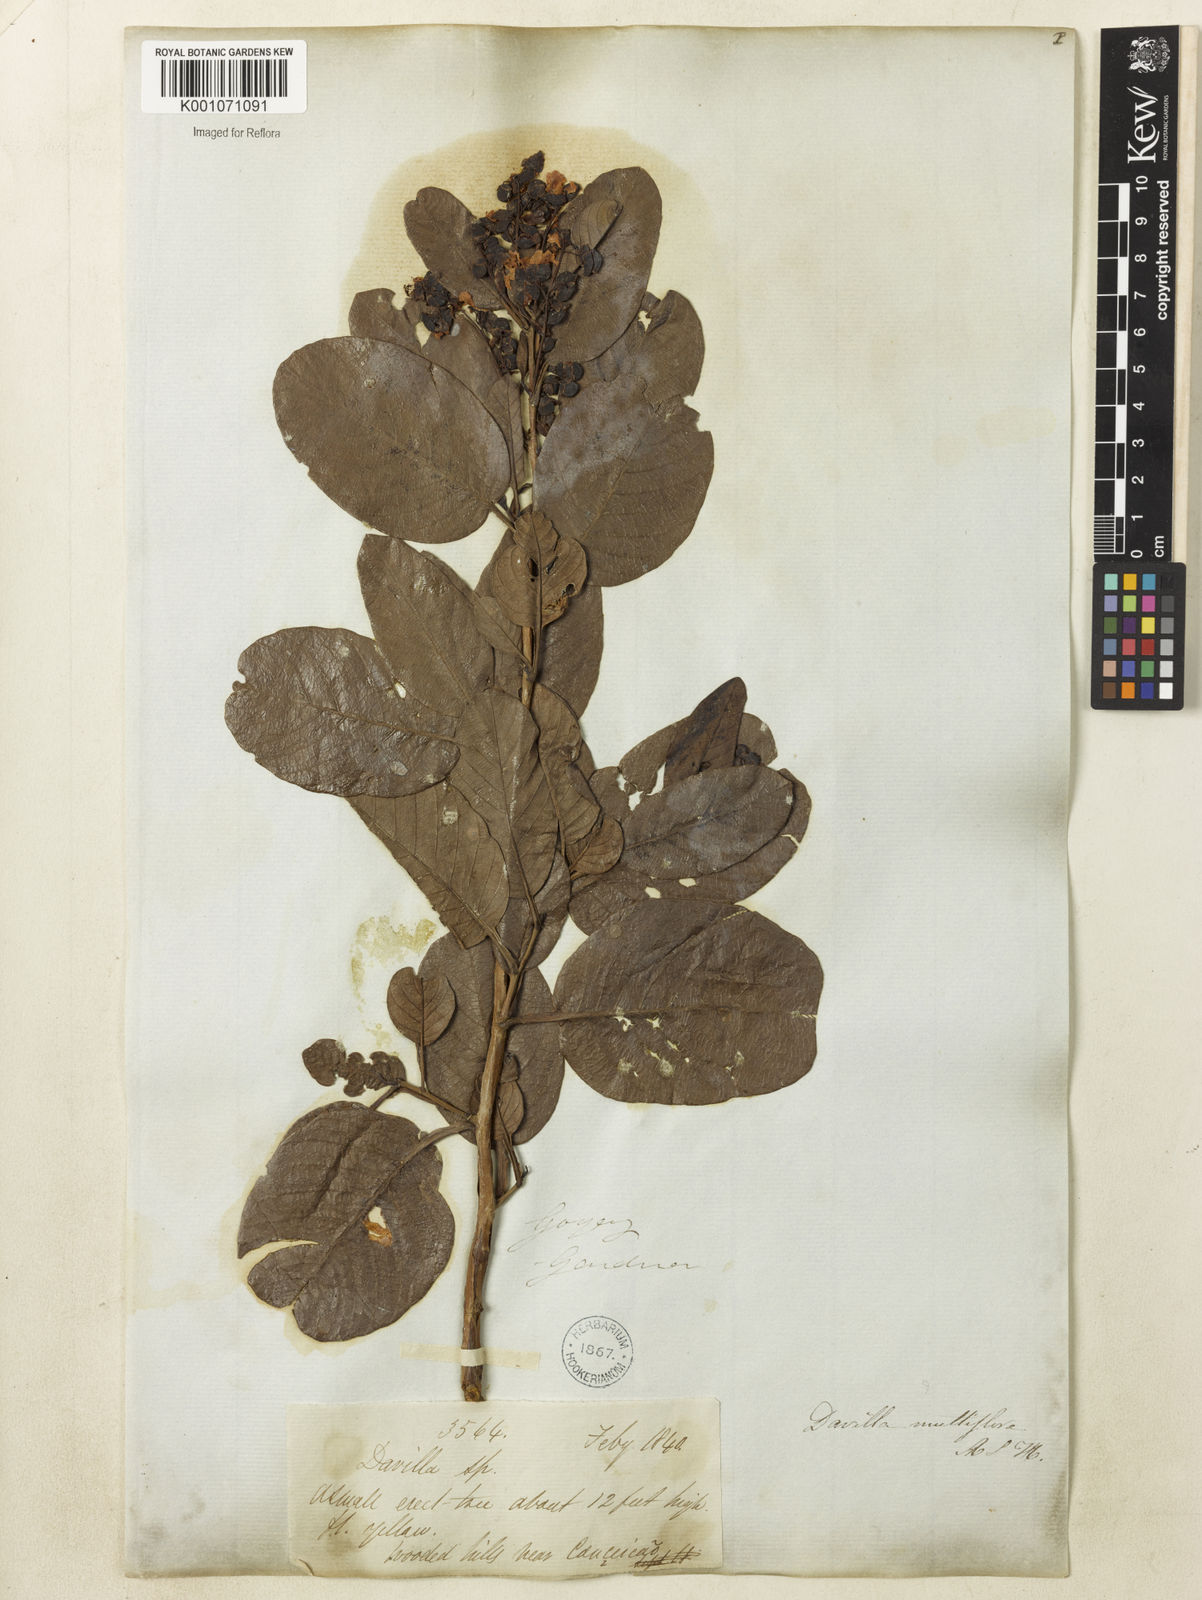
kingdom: Plantae
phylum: Tracheophyta
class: Magnoliopsida
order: Dilleniales
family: Dilleniaceae
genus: Davilla
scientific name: Davilla nitida
